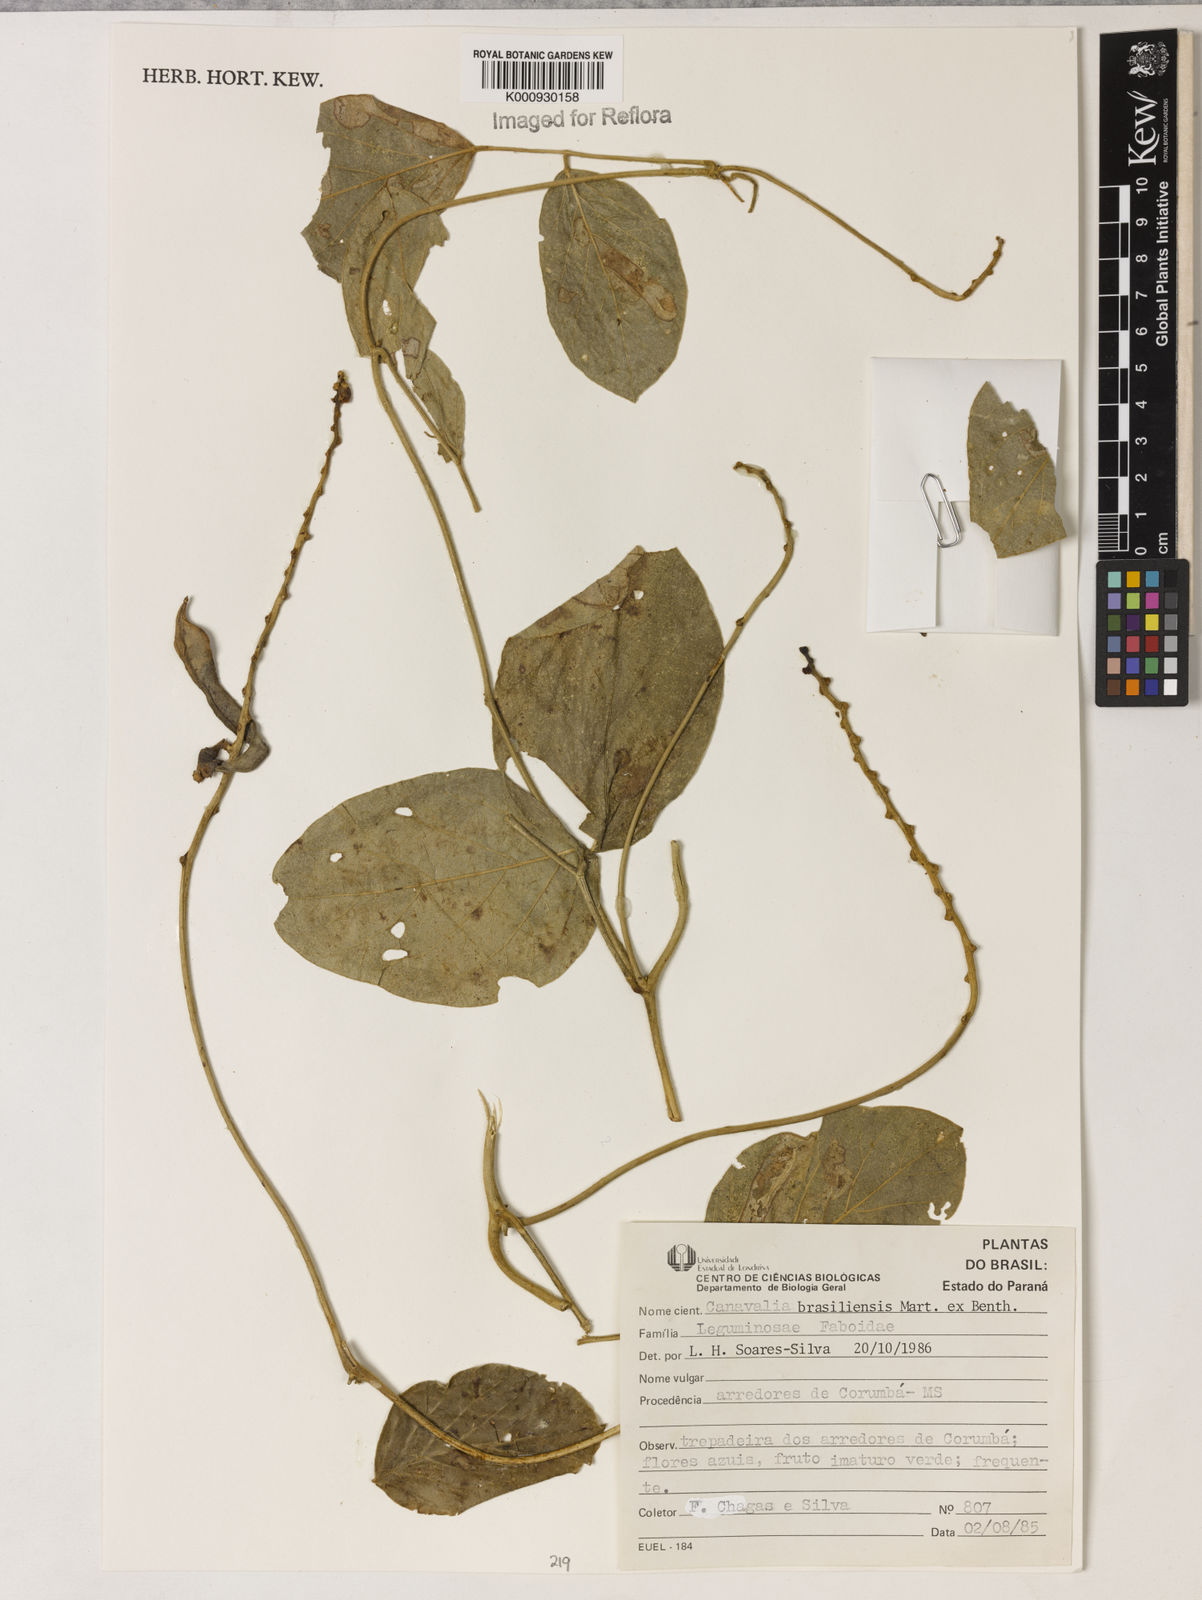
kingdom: Plantae
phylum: Tracheophyta
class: Magnoliopsida
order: Fabales
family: Fabaceae
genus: Canavalia
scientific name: Canavalia brasiliensis
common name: Barbicou-bean
